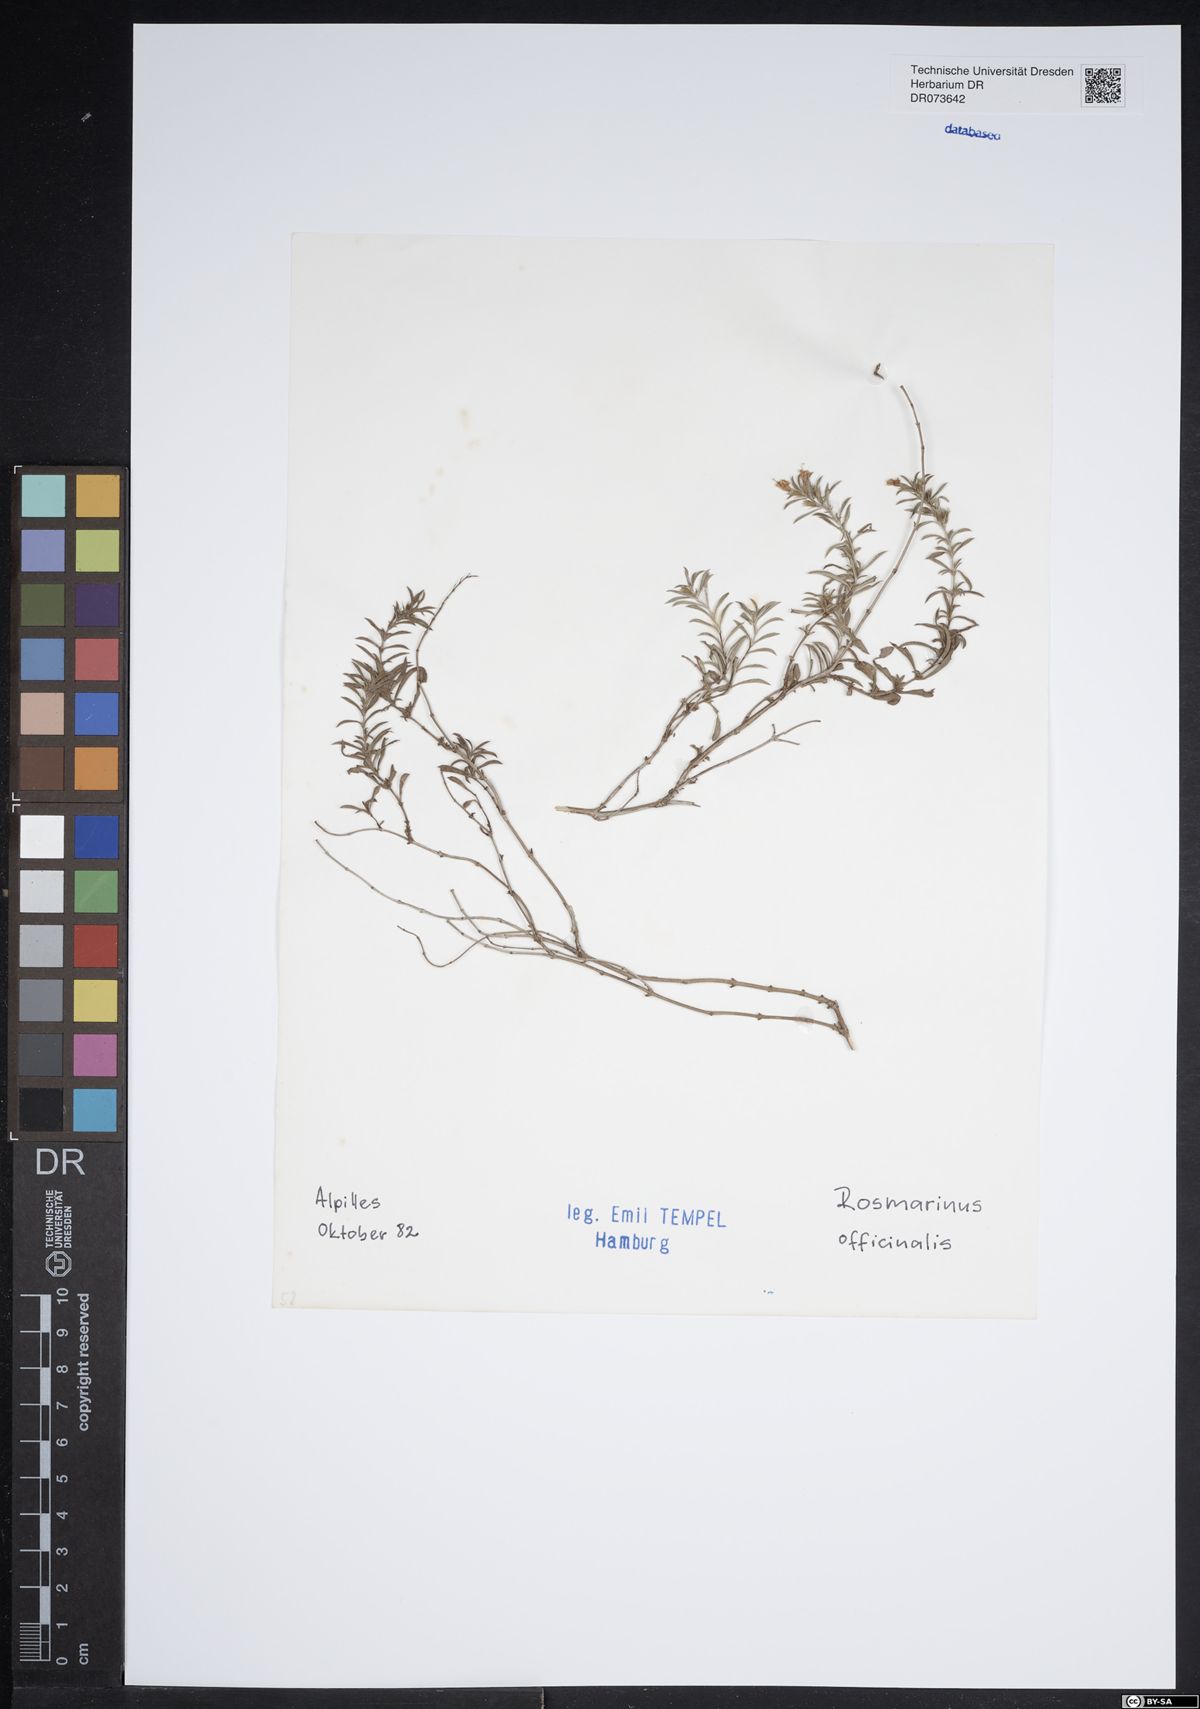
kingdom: Plantae
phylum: Tracheophyta
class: Magnoliopsida
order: Lamiales
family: Lamiaceae
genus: Salvia
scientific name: Salvia rosmarinus
